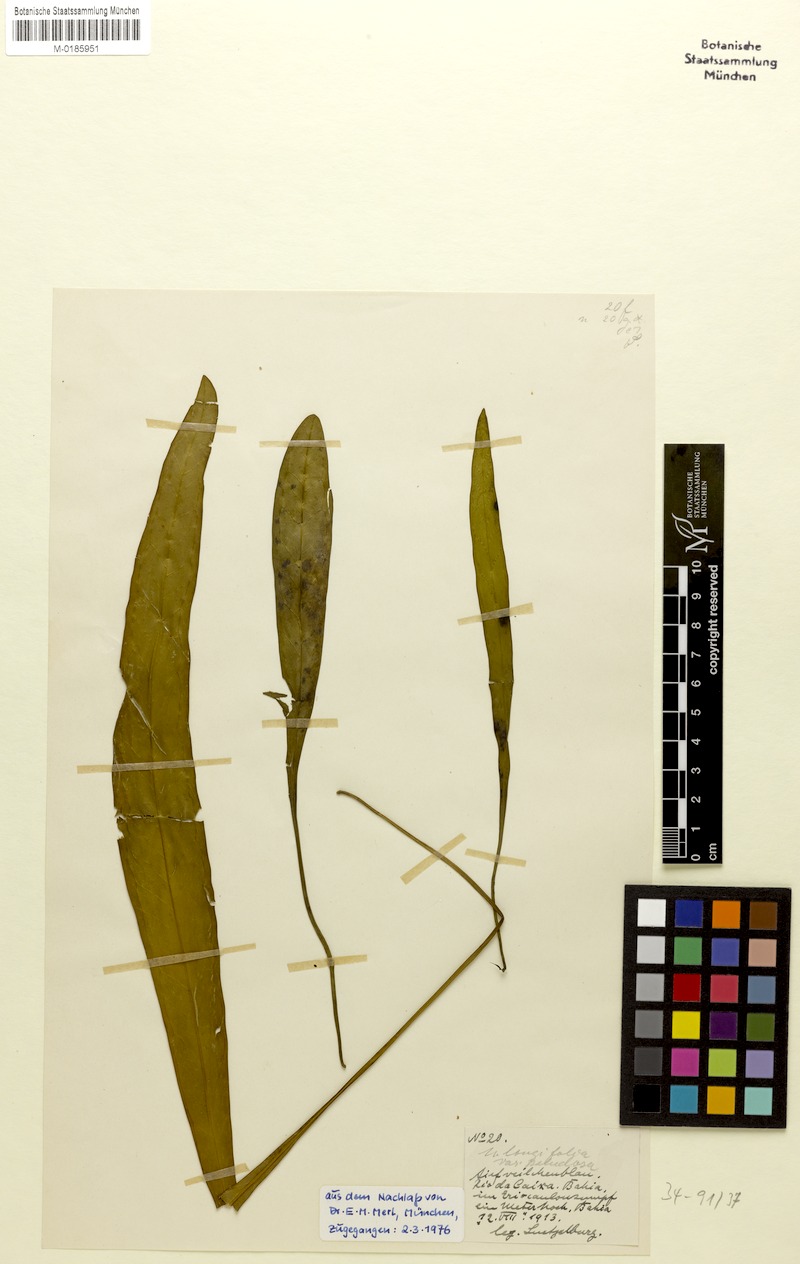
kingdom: Plantae
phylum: Tracheophyta
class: Magnoliopsida
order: Lamiales
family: Lentibulariaceae
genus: Utricularia
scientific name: Utricularia longifolia
